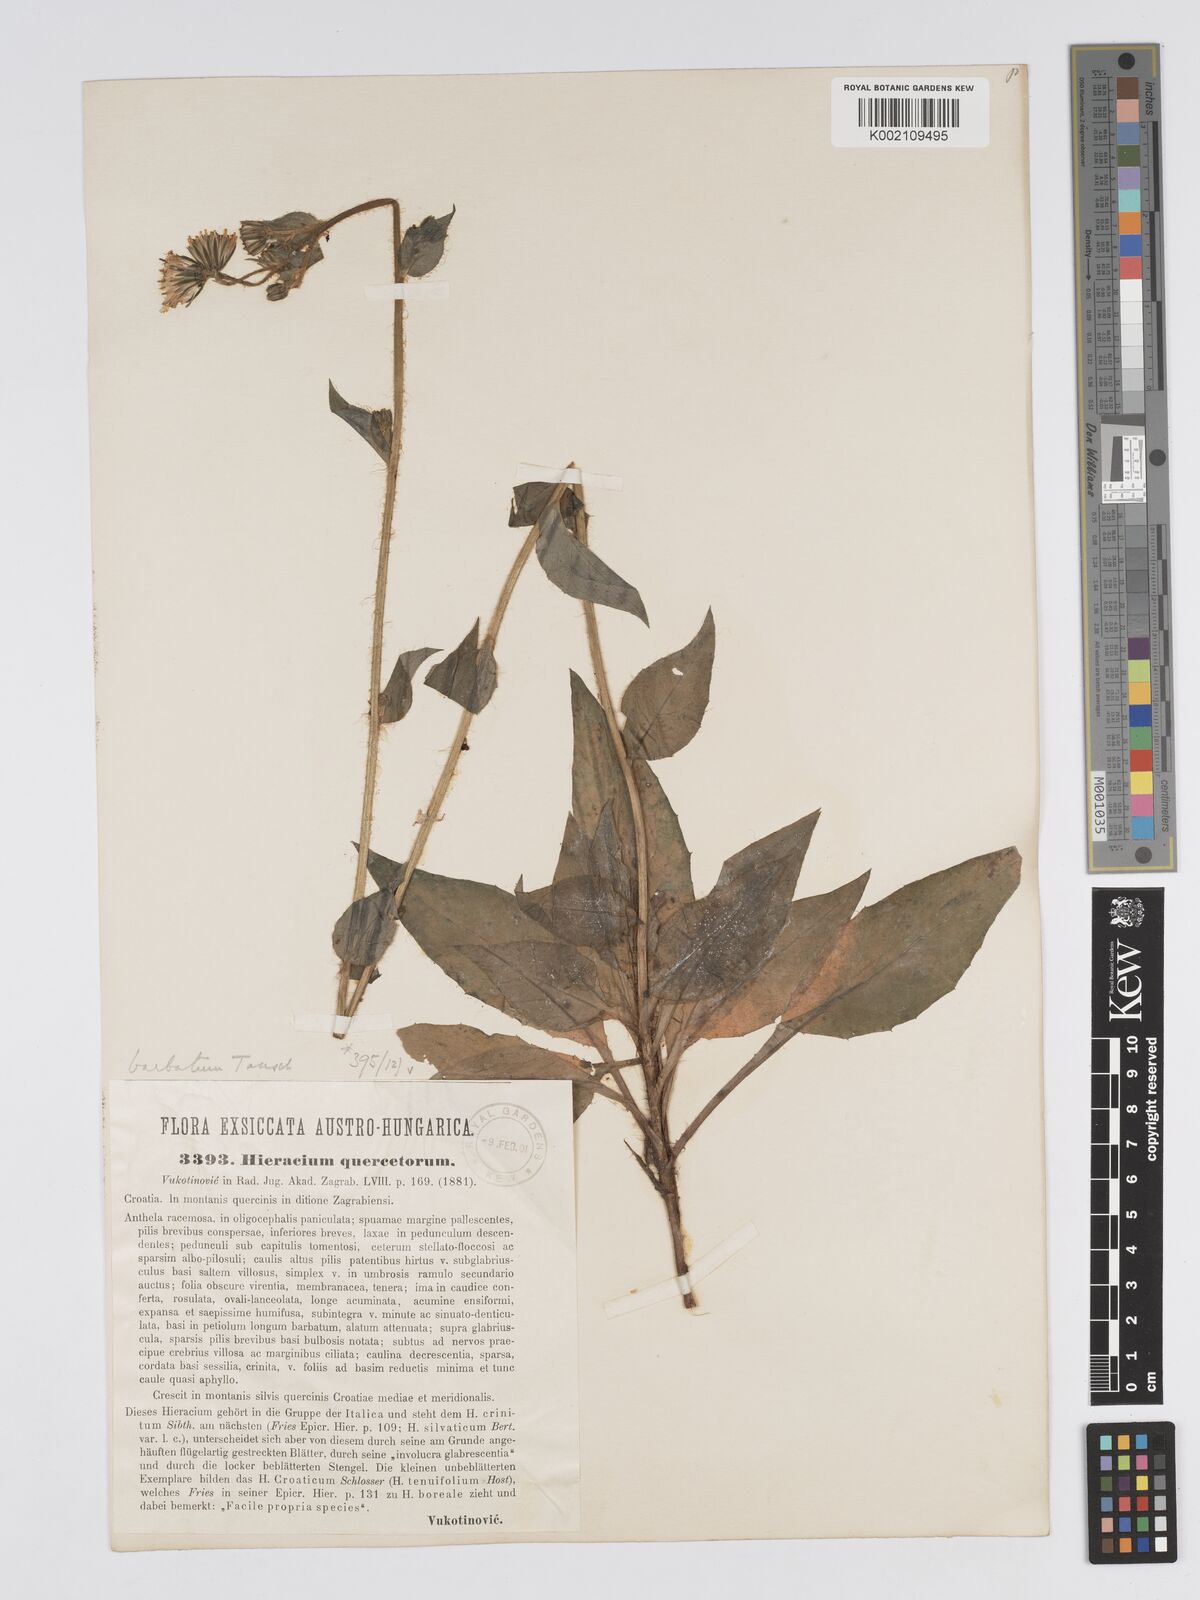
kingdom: Plantae
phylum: Tracheophyta
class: Magnoliopsida
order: Asterales
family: Asteraceae
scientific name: Asteraceae
